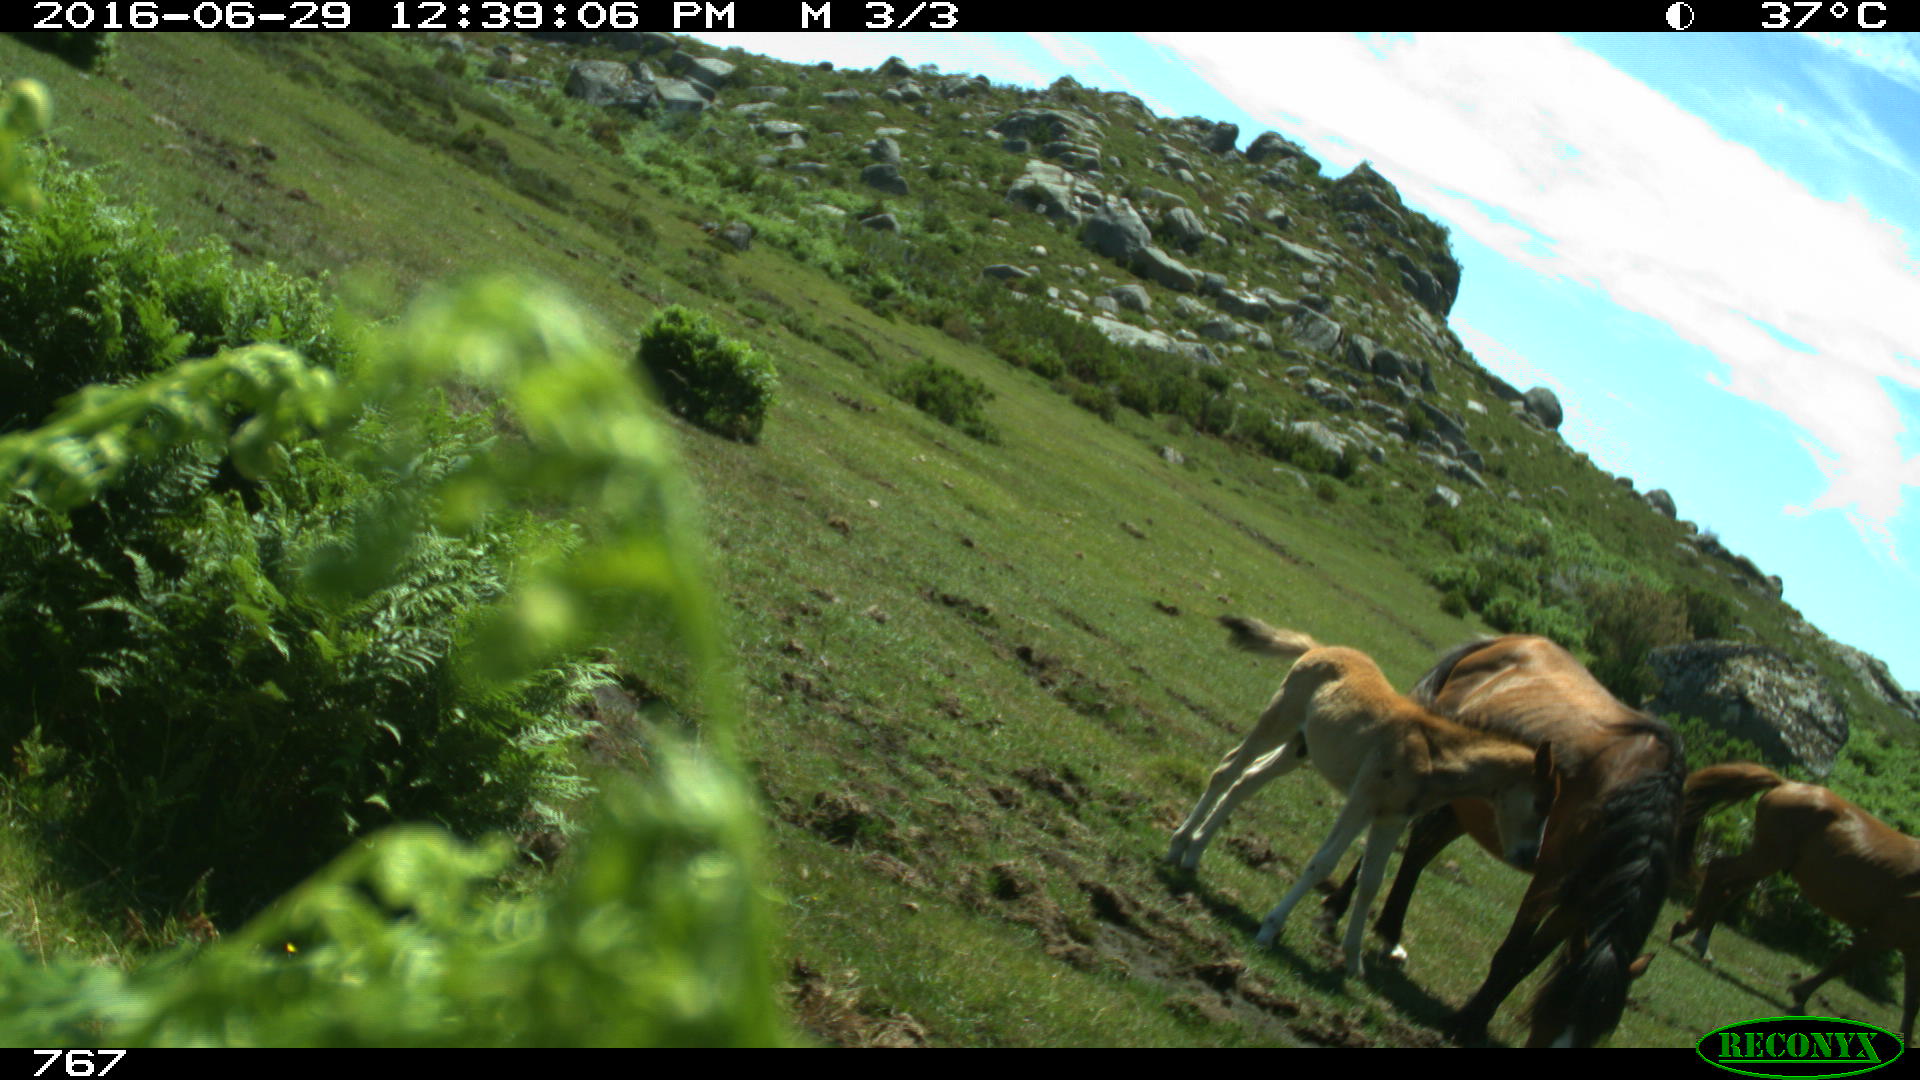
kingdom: Animalia
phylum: Chordata
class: Mammalia
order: Perissodactyla
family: Equidae
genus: Equus
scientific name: Equus caballus
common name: Horse
